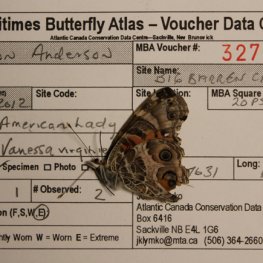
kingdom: Animalia
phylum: Arthropoda
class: Insecta
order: Lepidoptera
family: Nymphalidae
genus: Vanessa
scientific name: Vanessa virginiensis
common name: American Lady
